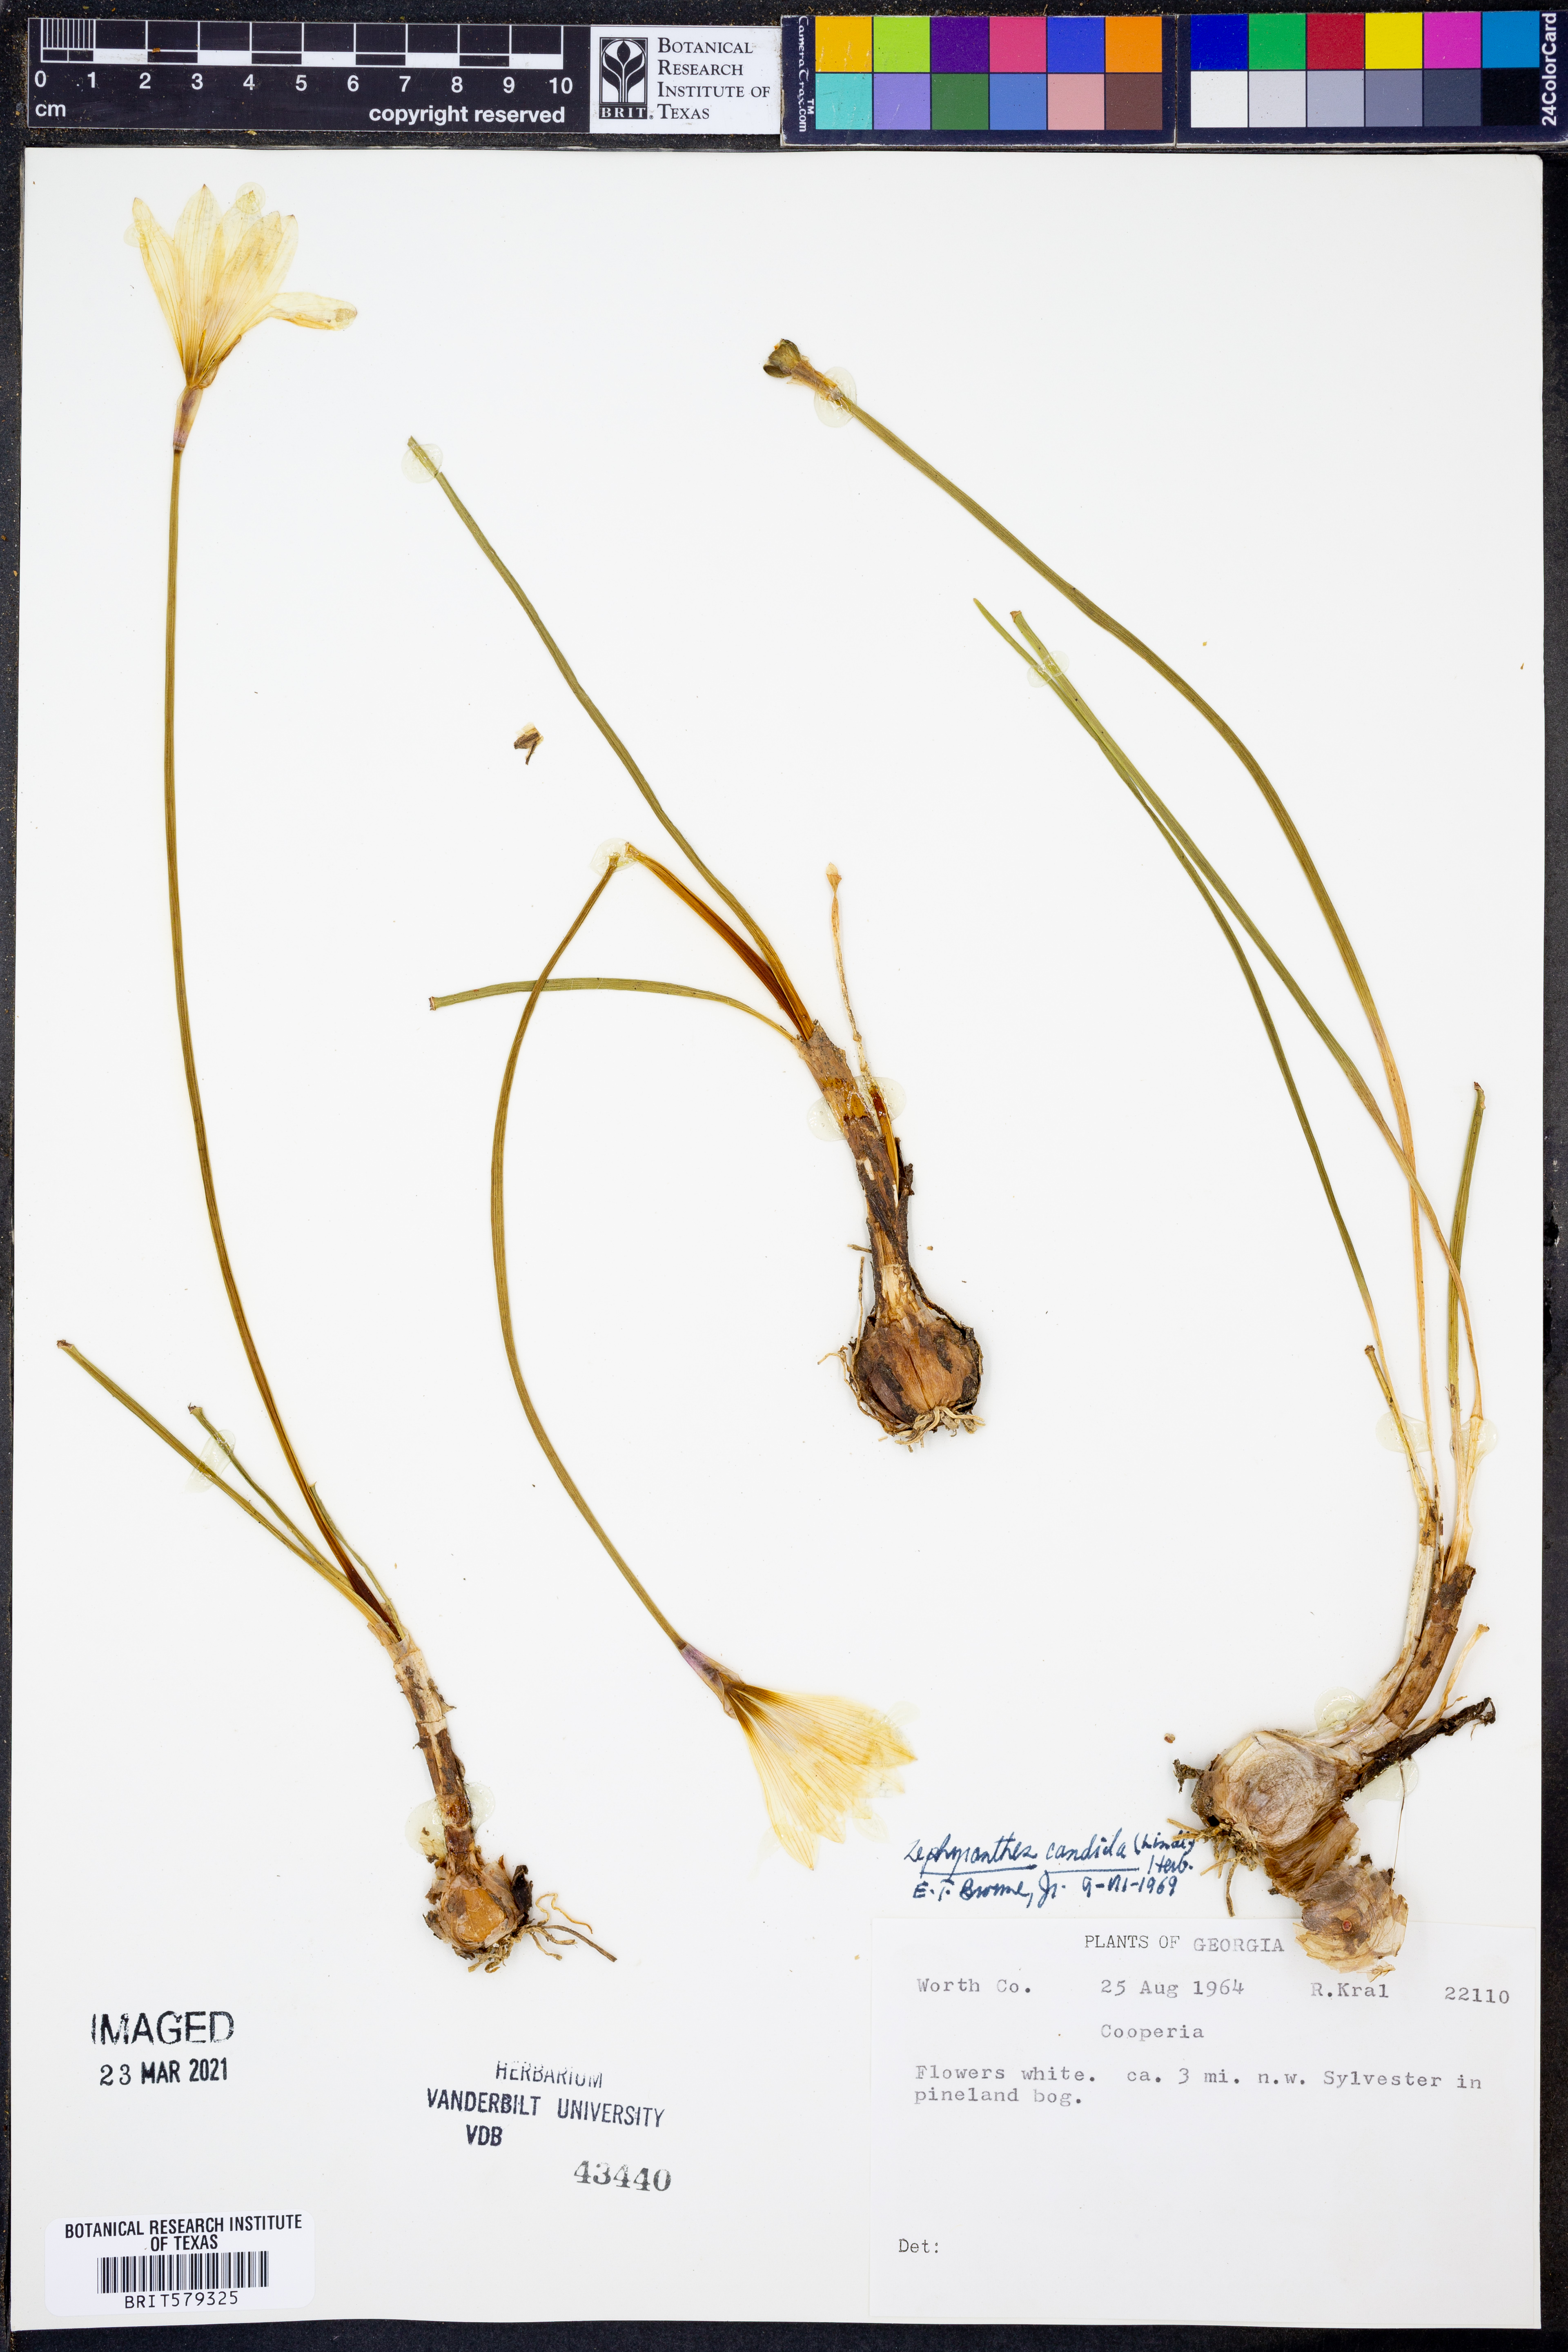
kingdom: Plantae
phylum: Tracheophyta
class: Liliopsida
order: Asparagales
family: Amaryllidaceae
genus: Zephyranthes
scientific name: Zephyranthes candida
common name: Autumn zephyrlily
